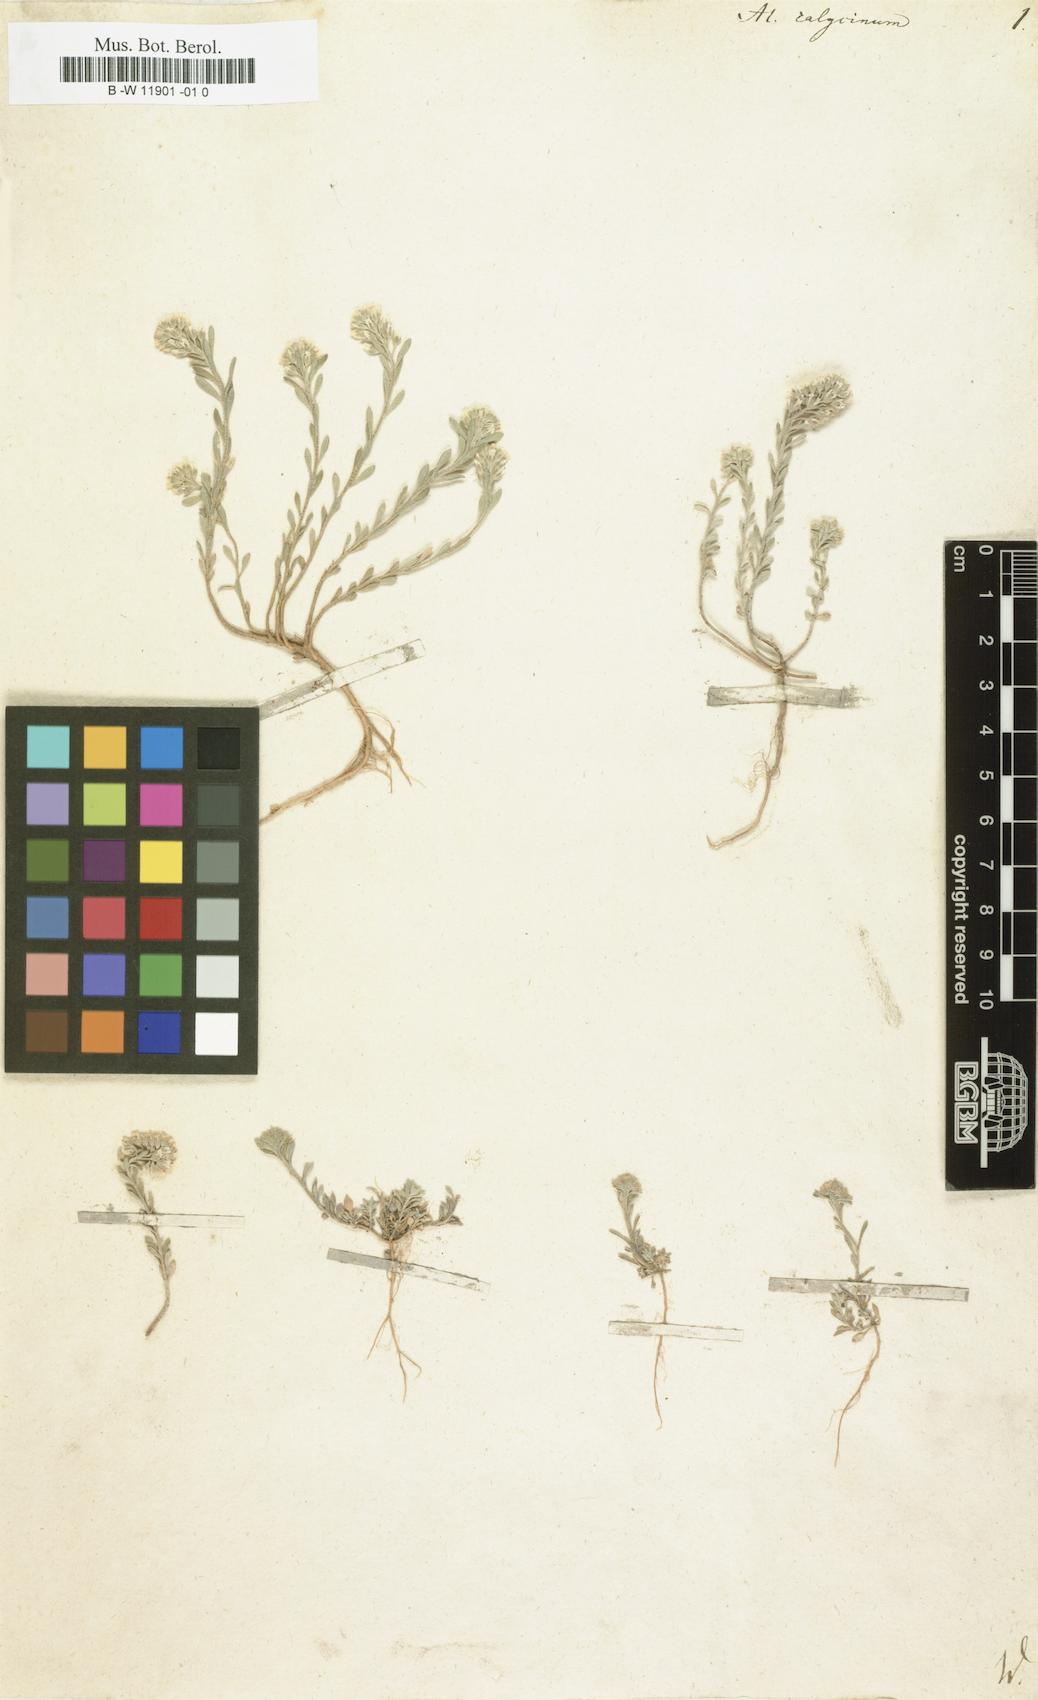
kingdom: Plantae
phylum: Tracheophyta
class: Magnoliopsida
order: Brassicales
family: Brassicaceae
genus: Alyssum
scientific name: Alyssum alyssoides
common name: Small alison
